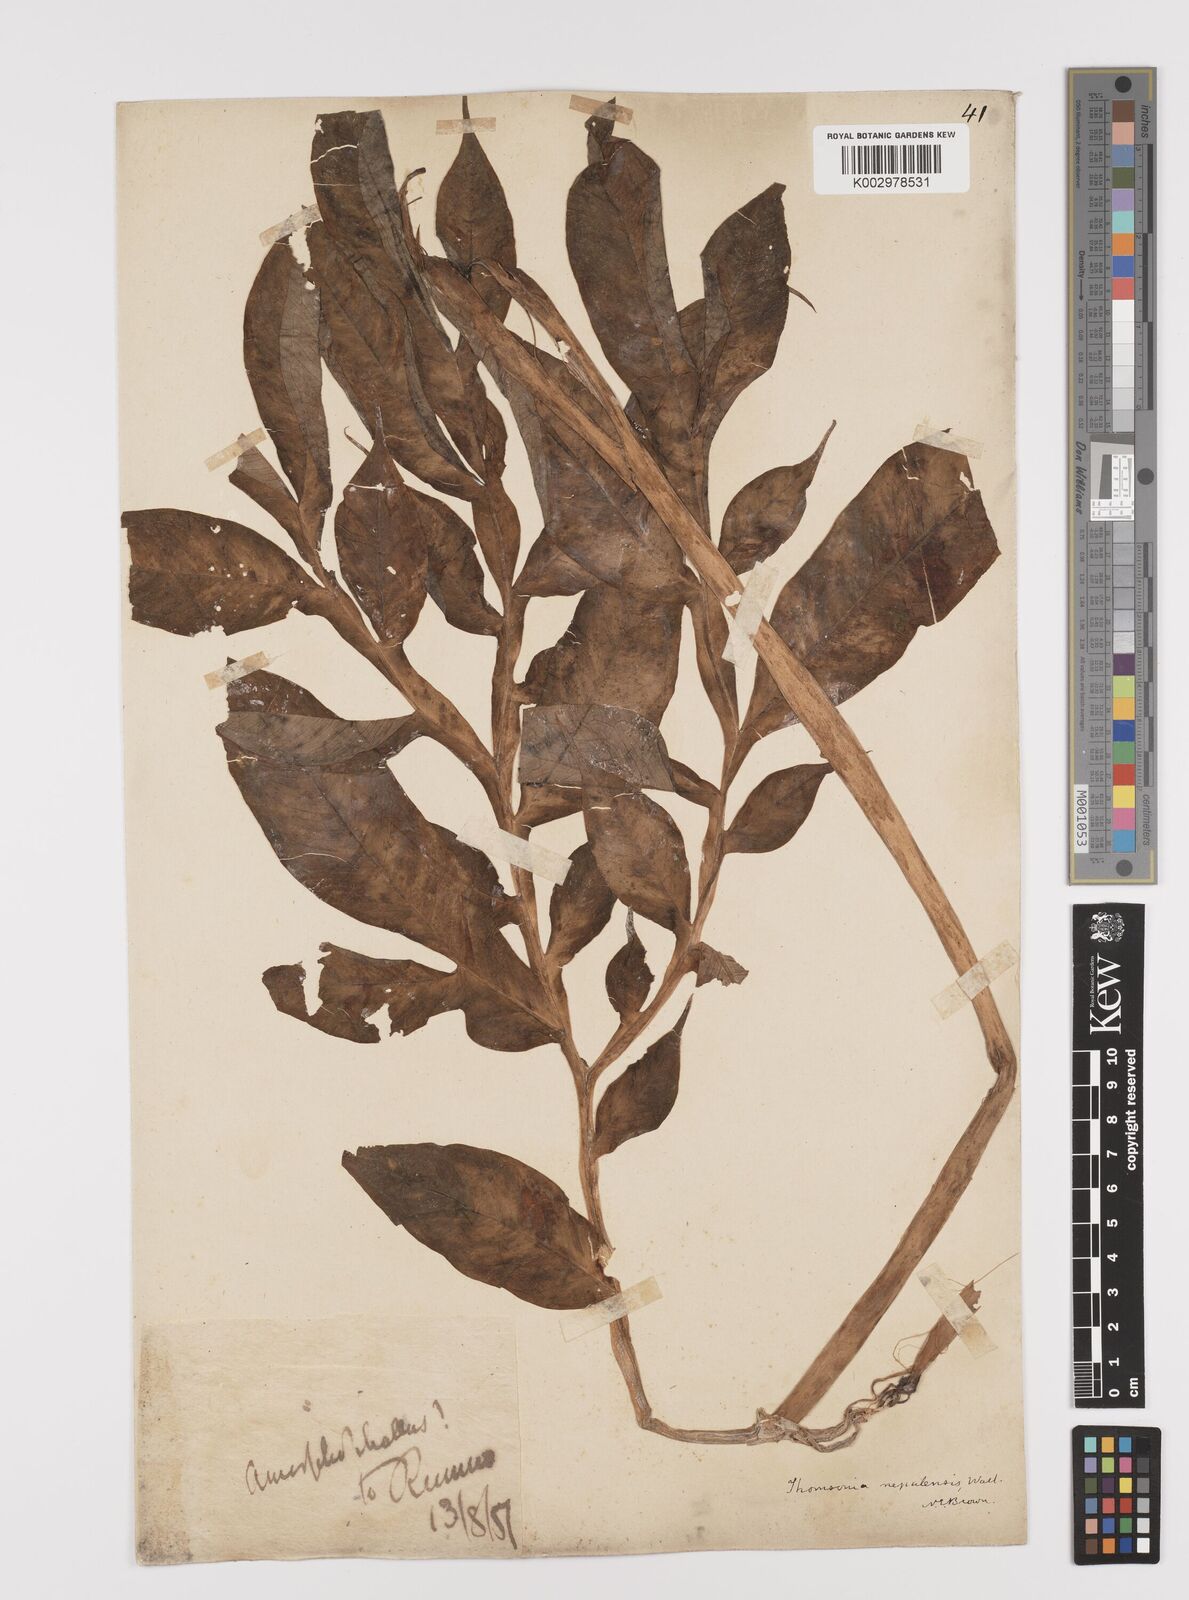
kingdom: Plantae
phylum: Tracheophyta
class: Liliopsida
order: Alismatales
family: Araceae
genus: Amorphophallus
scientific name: Amorphophallus napalensis
